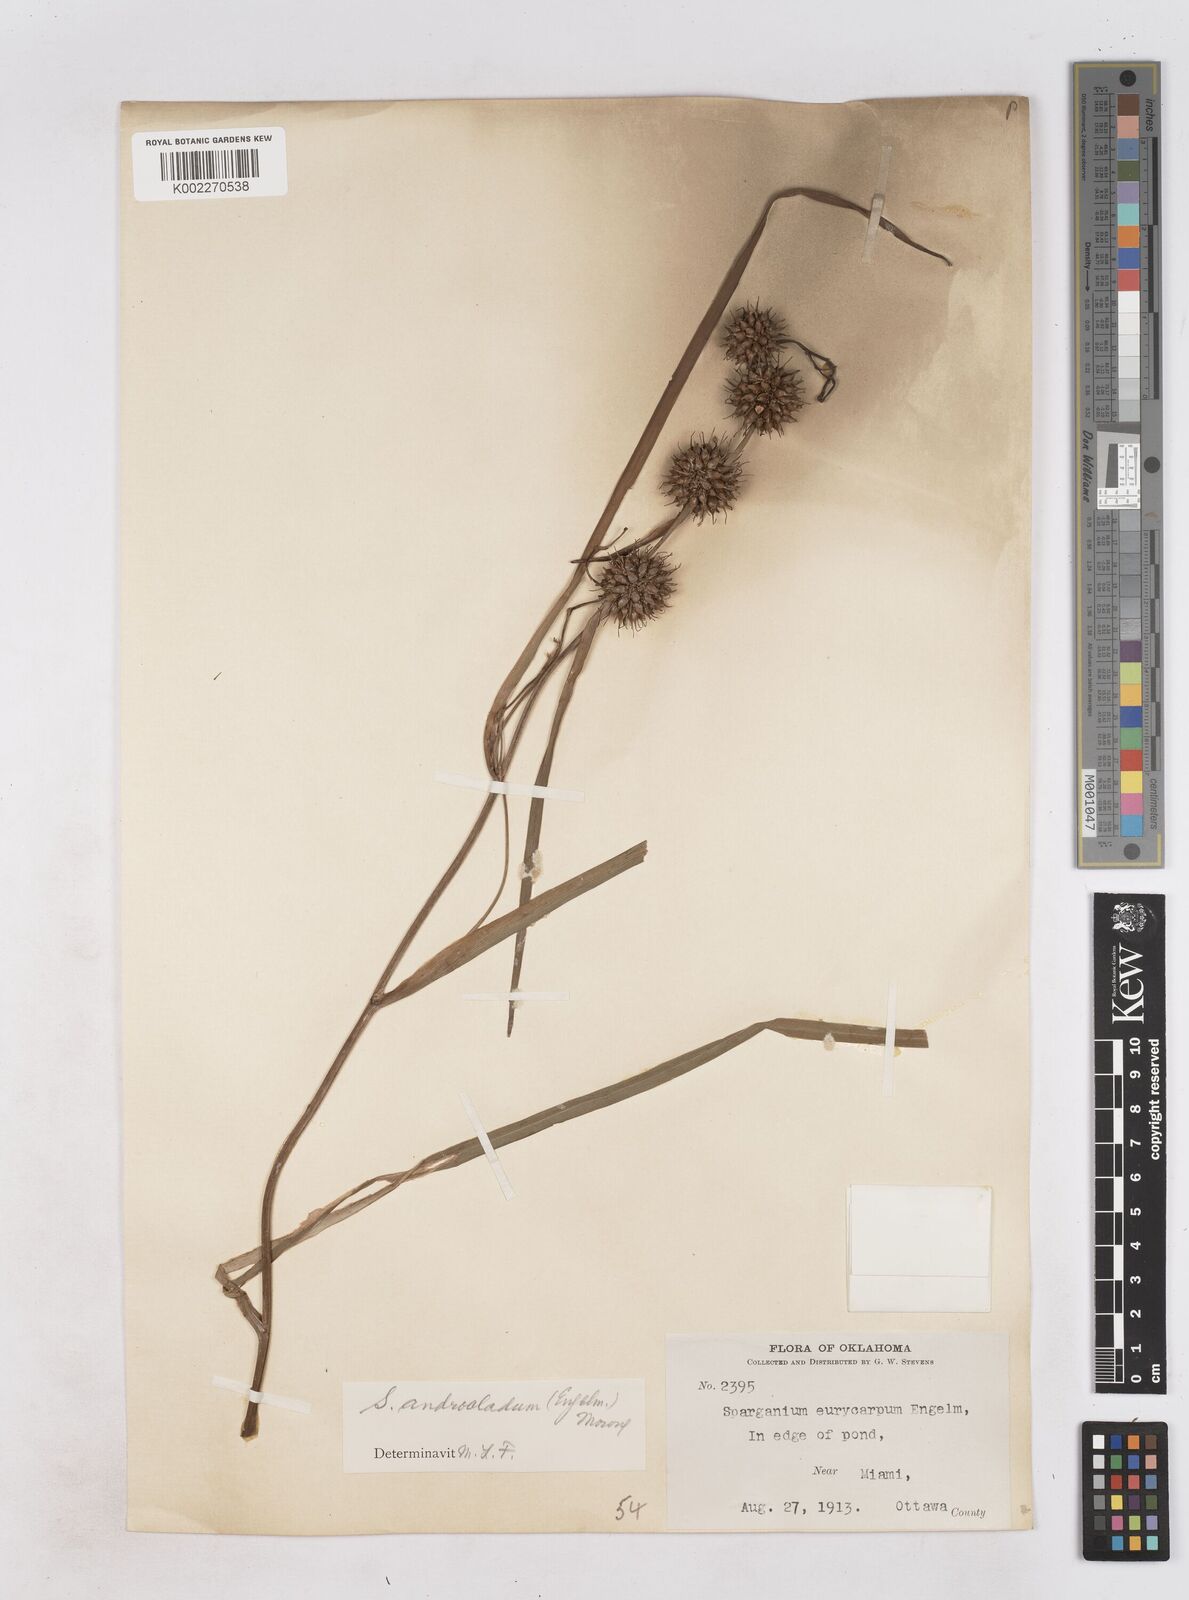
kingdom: Plantae
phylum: Tracheophyta
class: Liliopsida
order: Poales
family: Typhaceae
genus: Sparganium
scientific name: Sparganium androcladum
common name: Branched burreed
